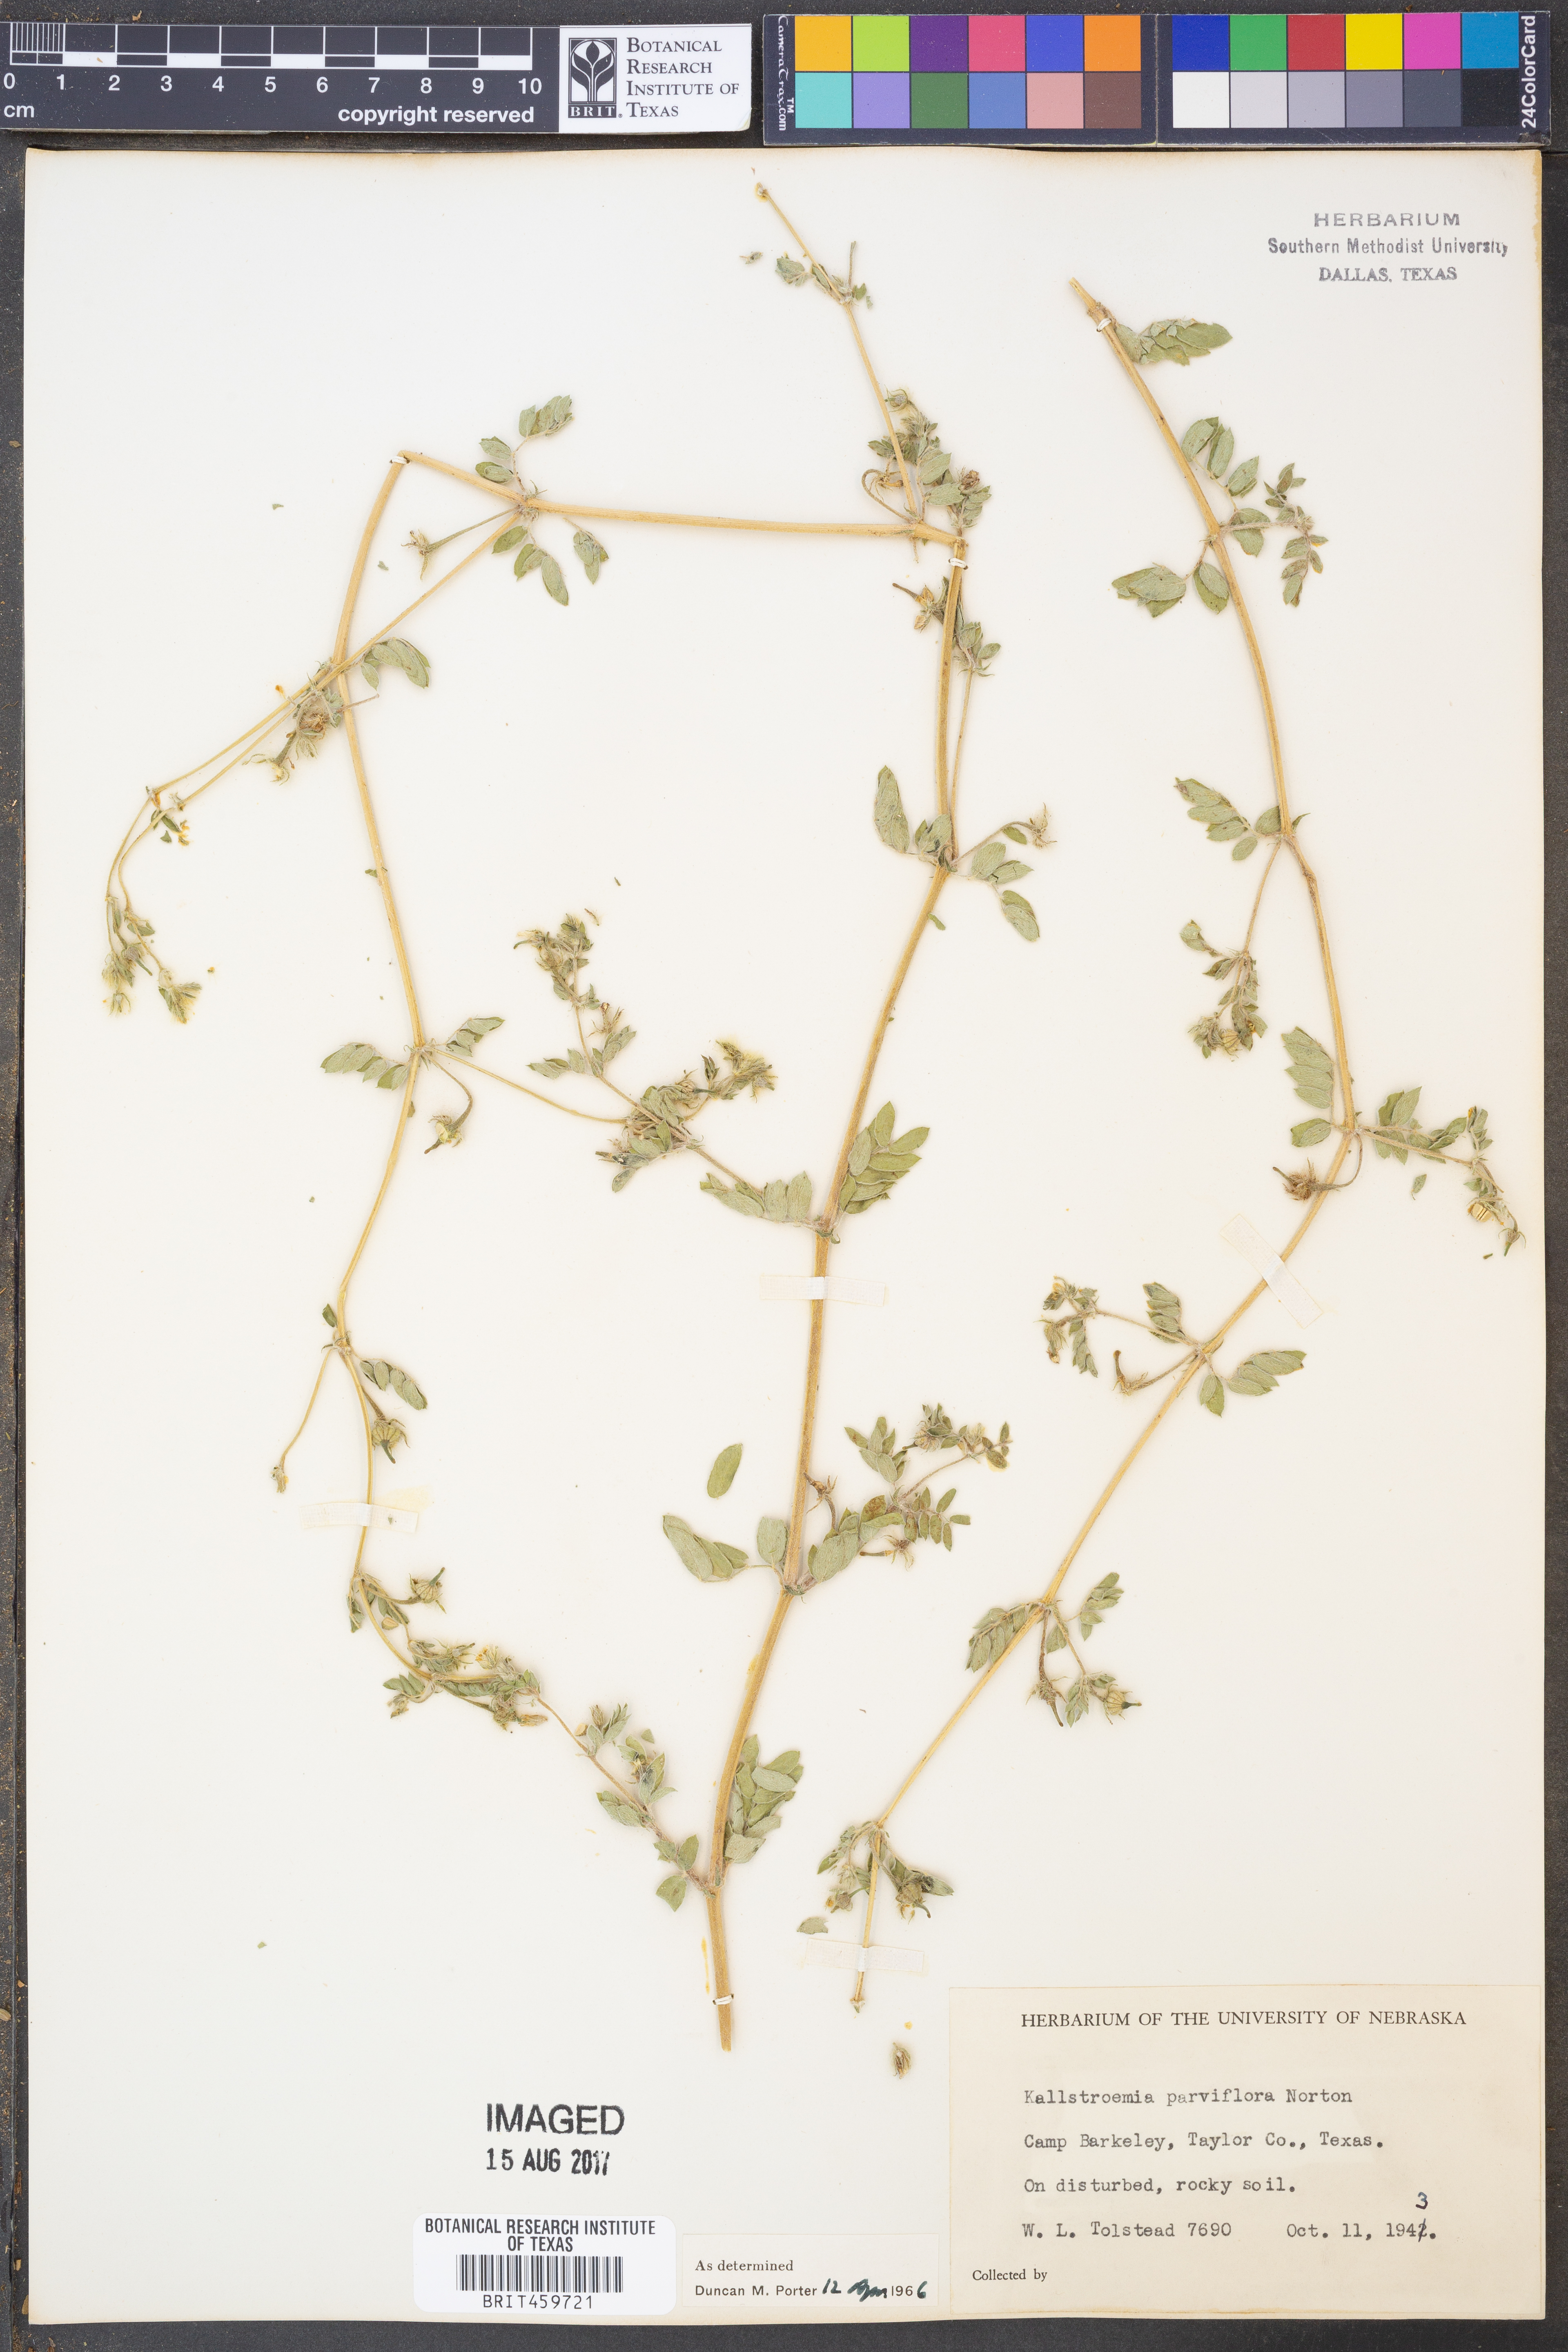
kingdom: Plantae
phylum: Tracheophyta
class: Magnoliopsida
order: Zygophyllales
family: Zygophyllaceae
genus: Kallstroemia
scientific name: Kallstroemia parviflora
